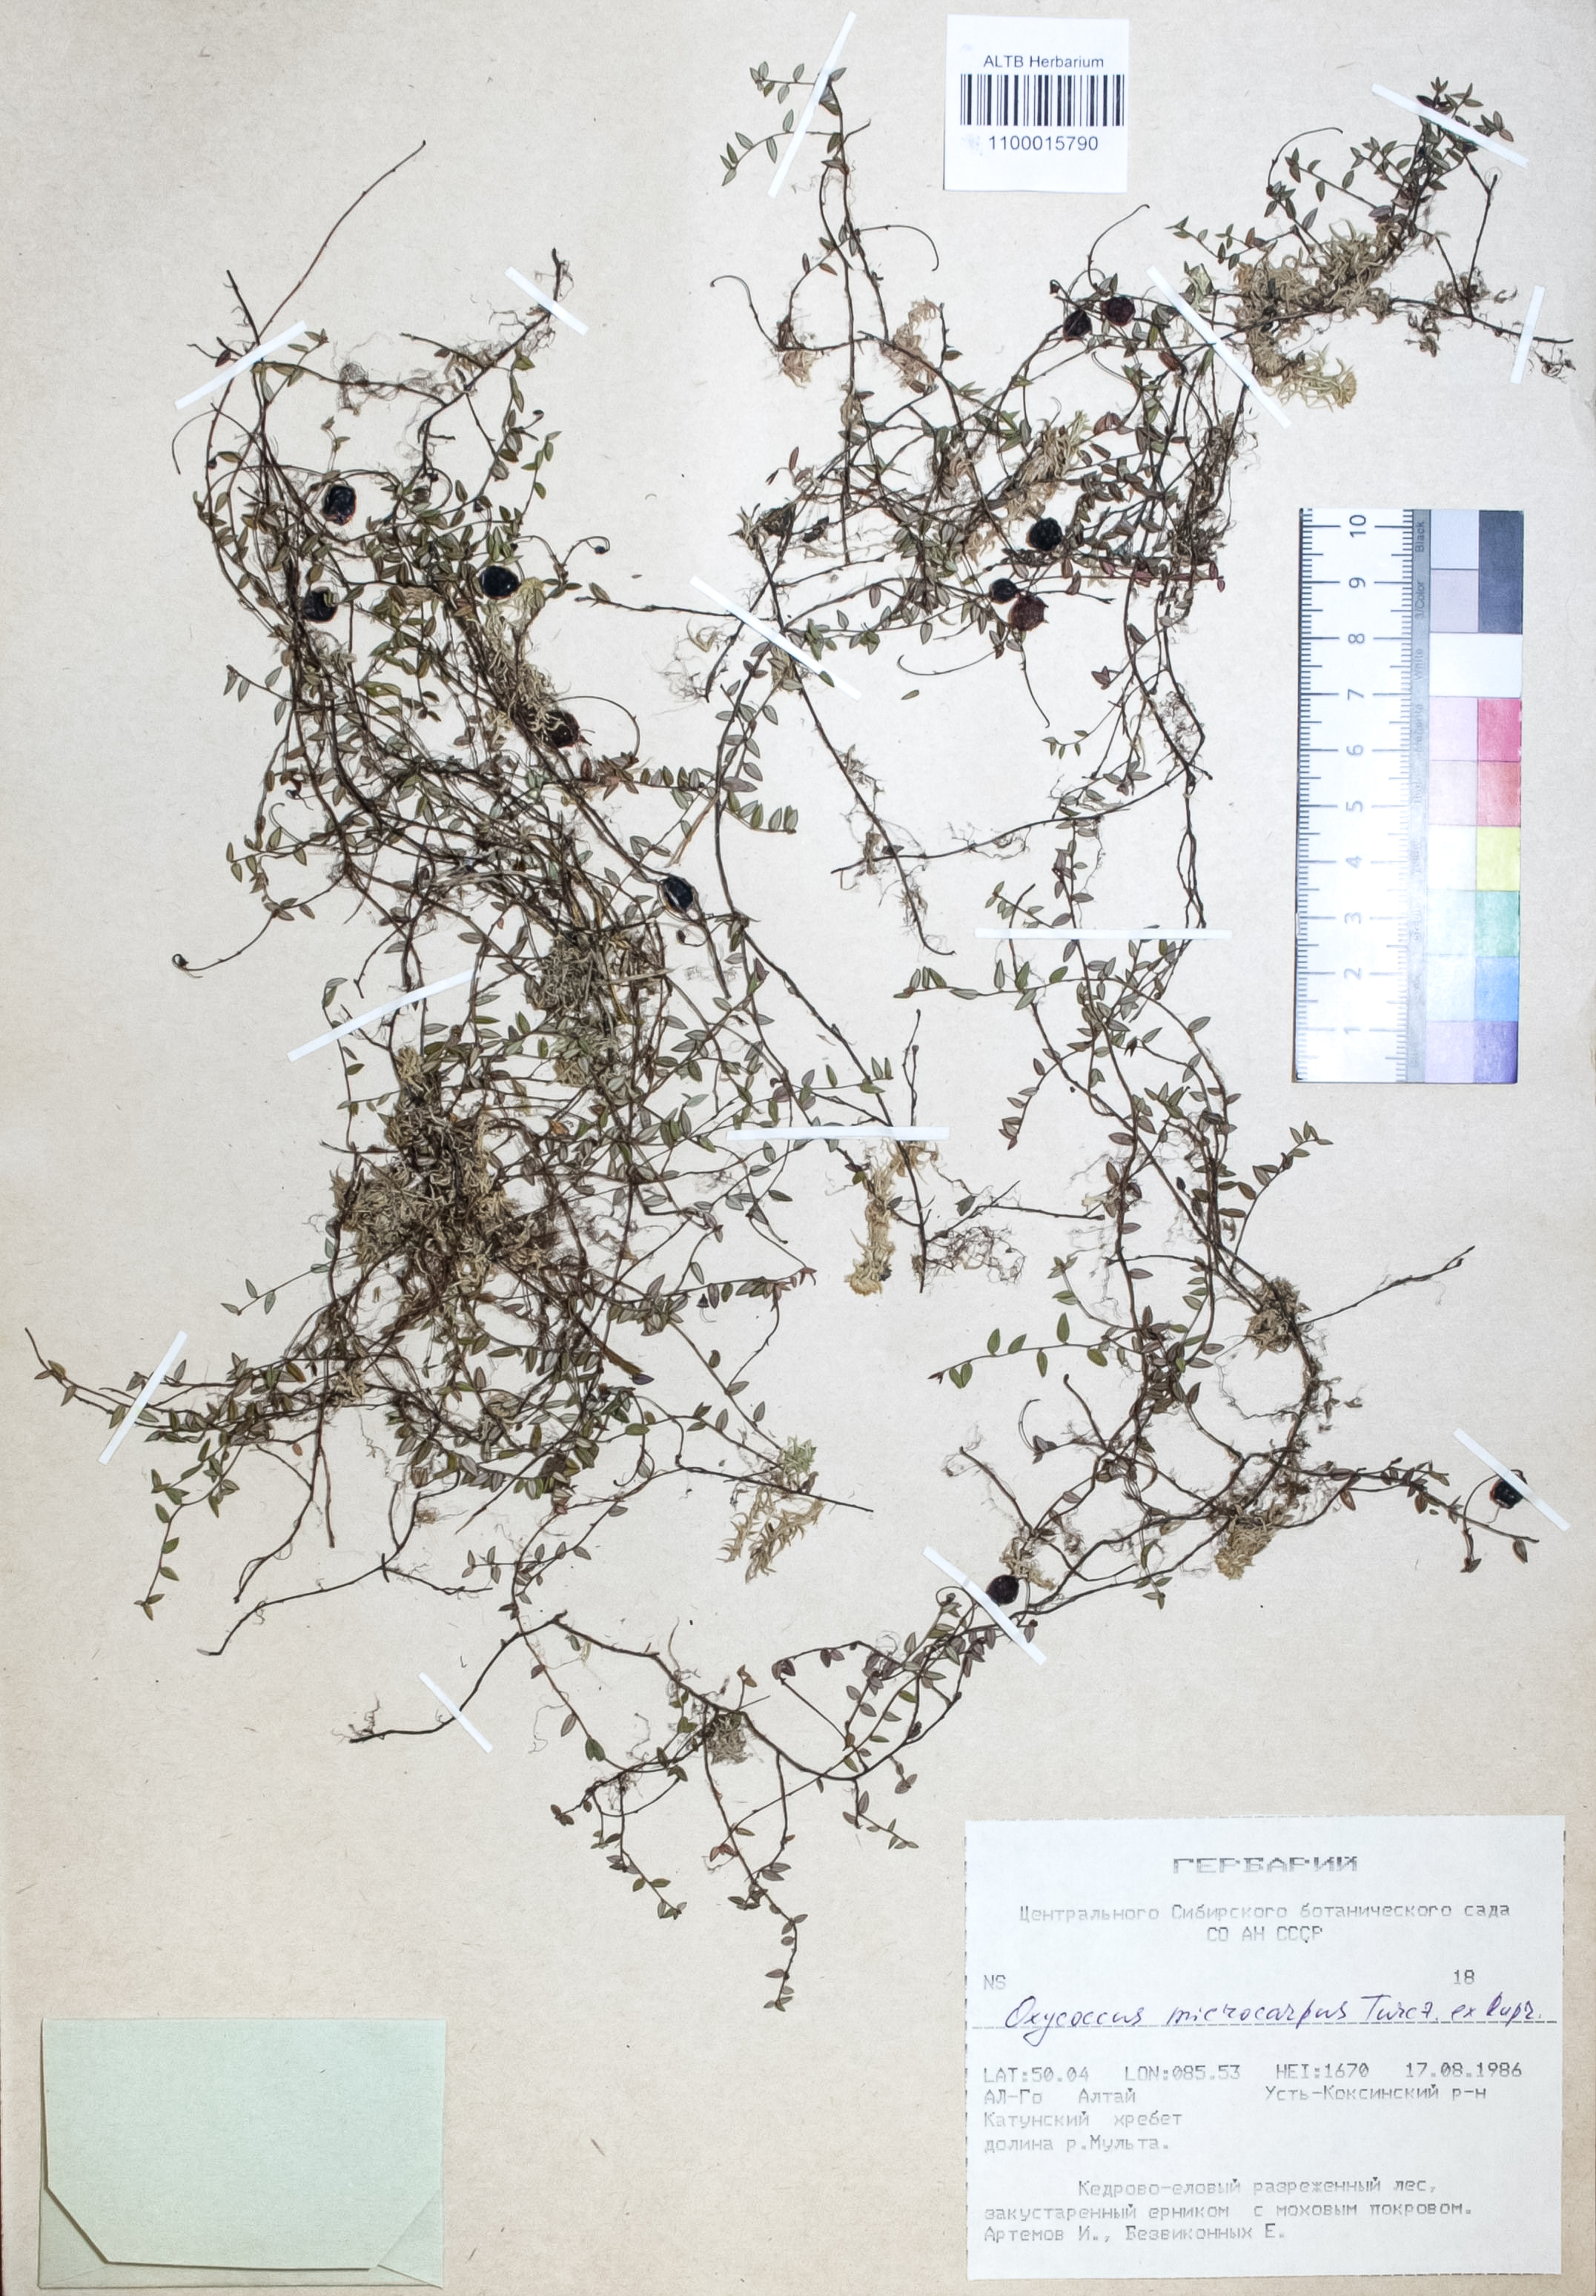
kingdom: Plantae
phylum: Tracheophyta
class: Magnoliopsida
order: Ericales
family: Ericaceae
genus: Vaccinium
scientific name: Vaccinium microcarpum
